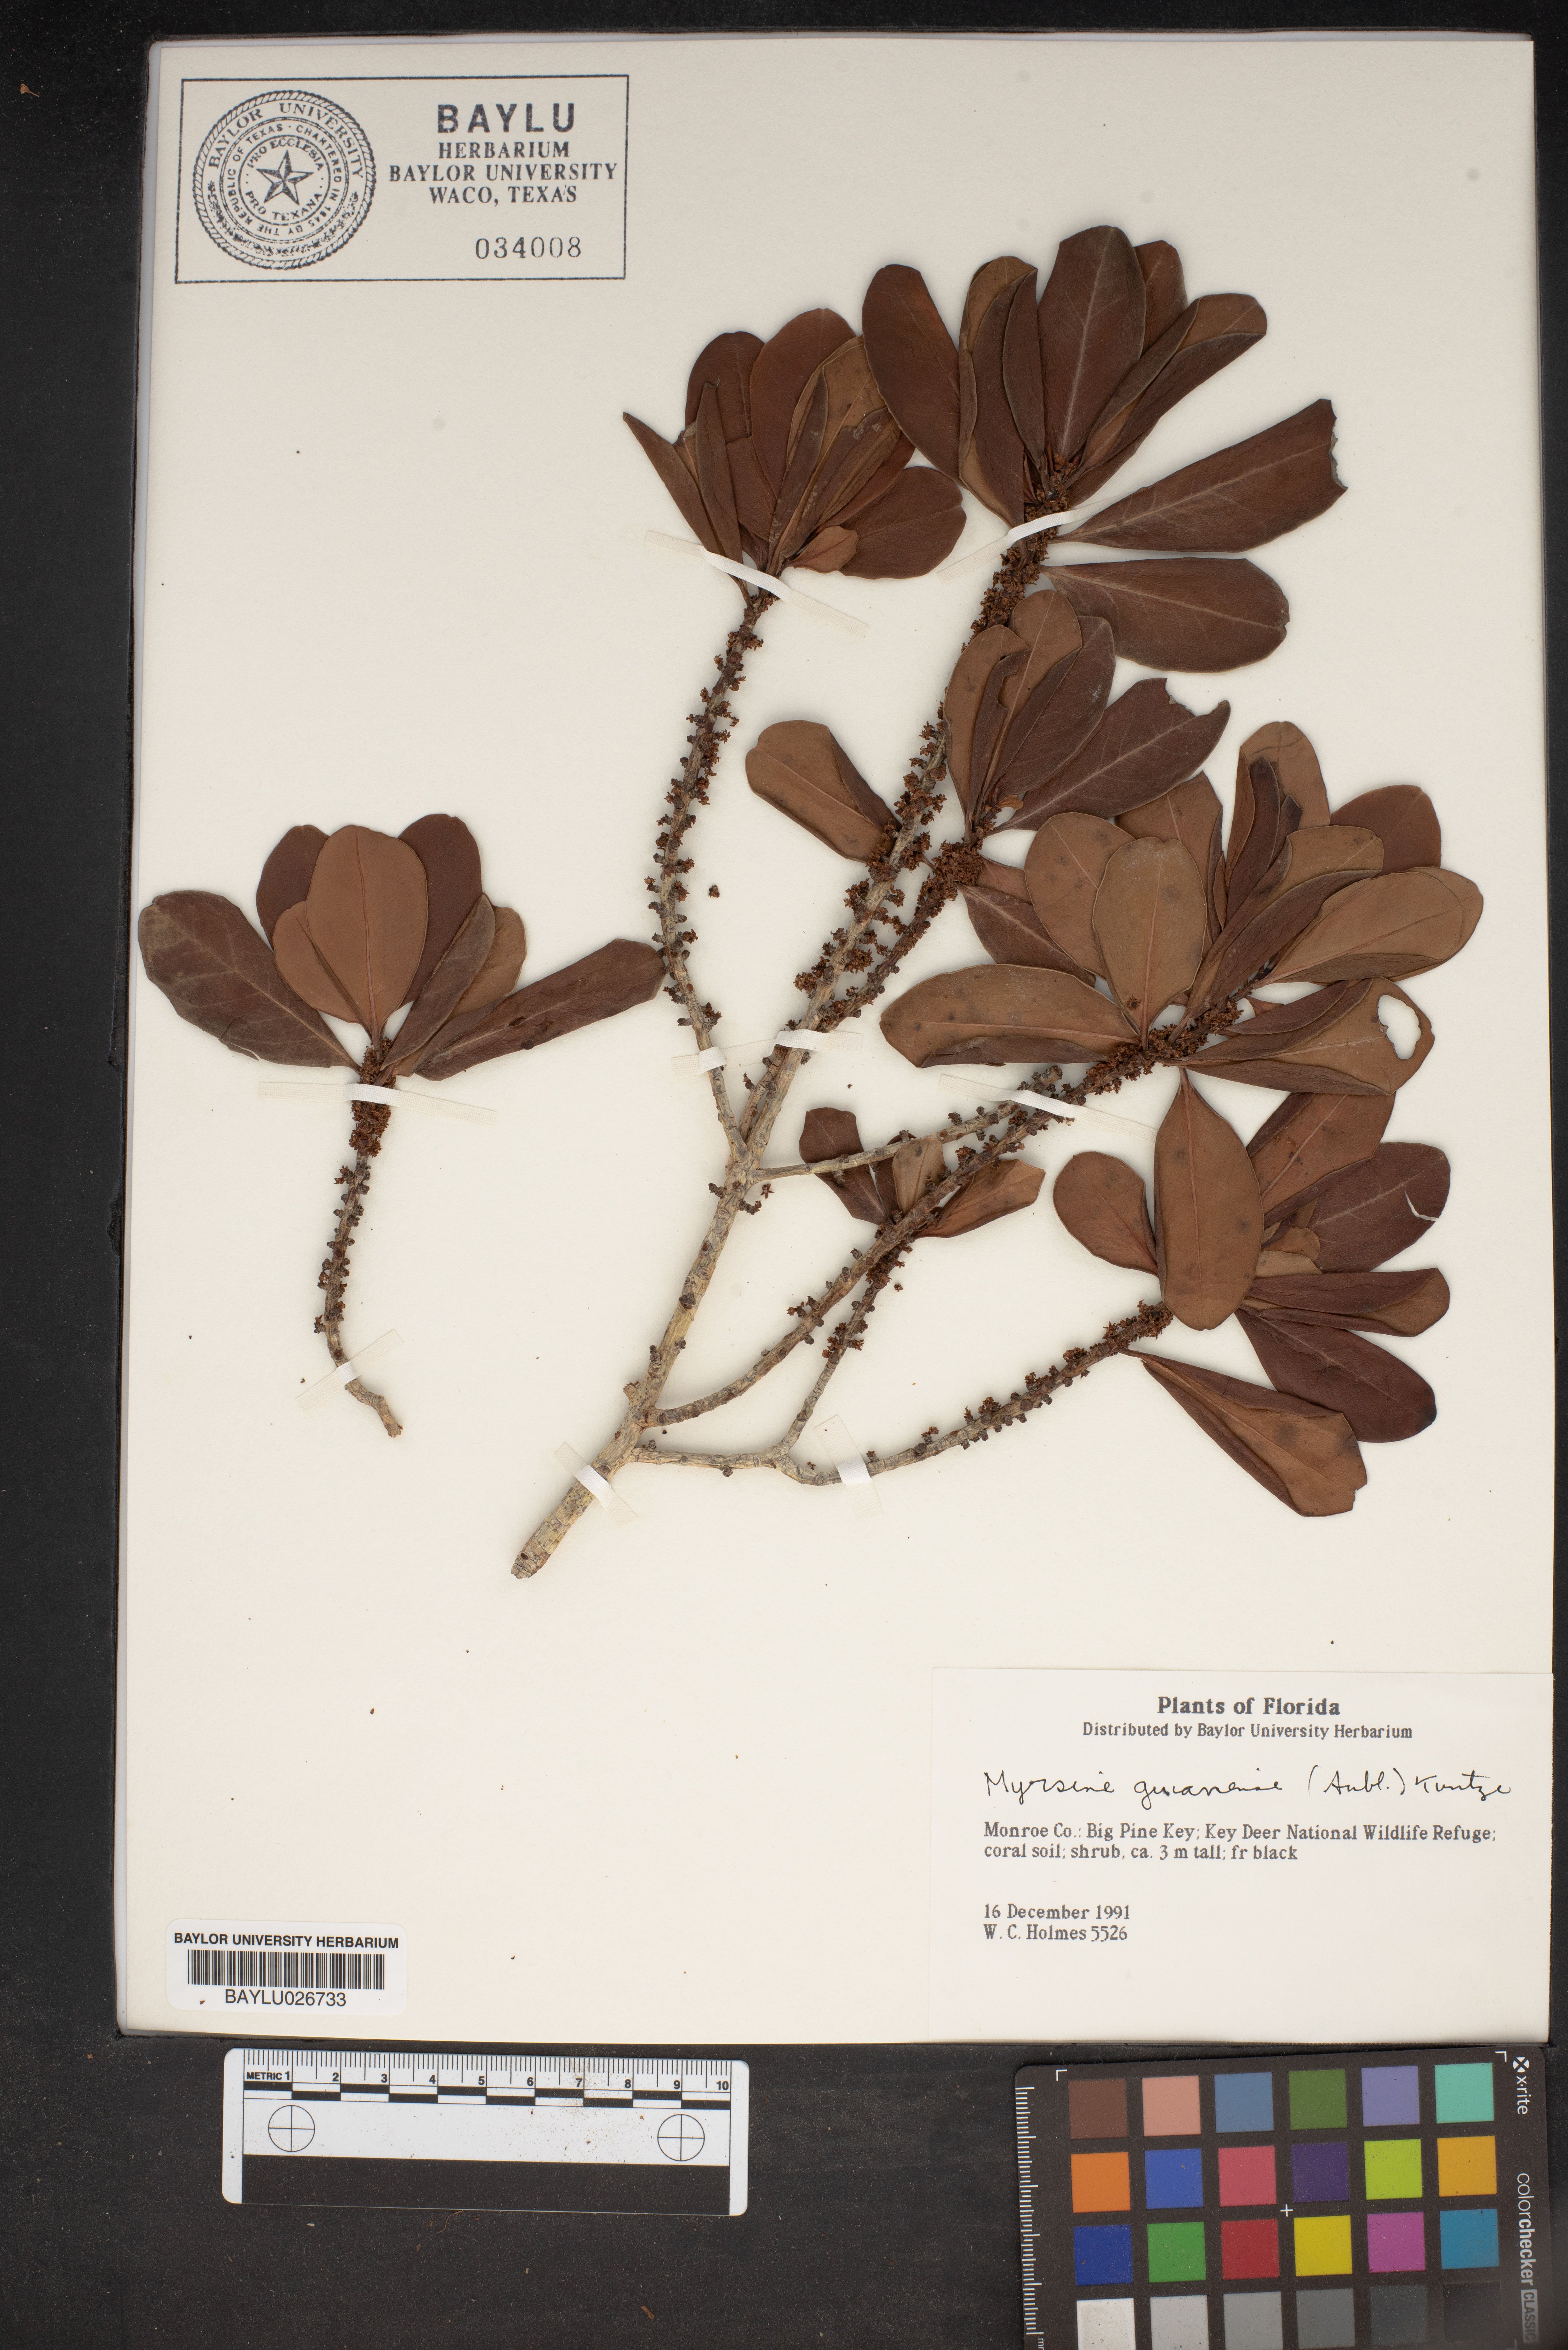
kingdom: Plantae
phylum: Tracheophyta
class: Magnoliopsida
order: Ericales
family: Primulaceae
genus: Myrsine
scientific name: Myrsine guianensis
